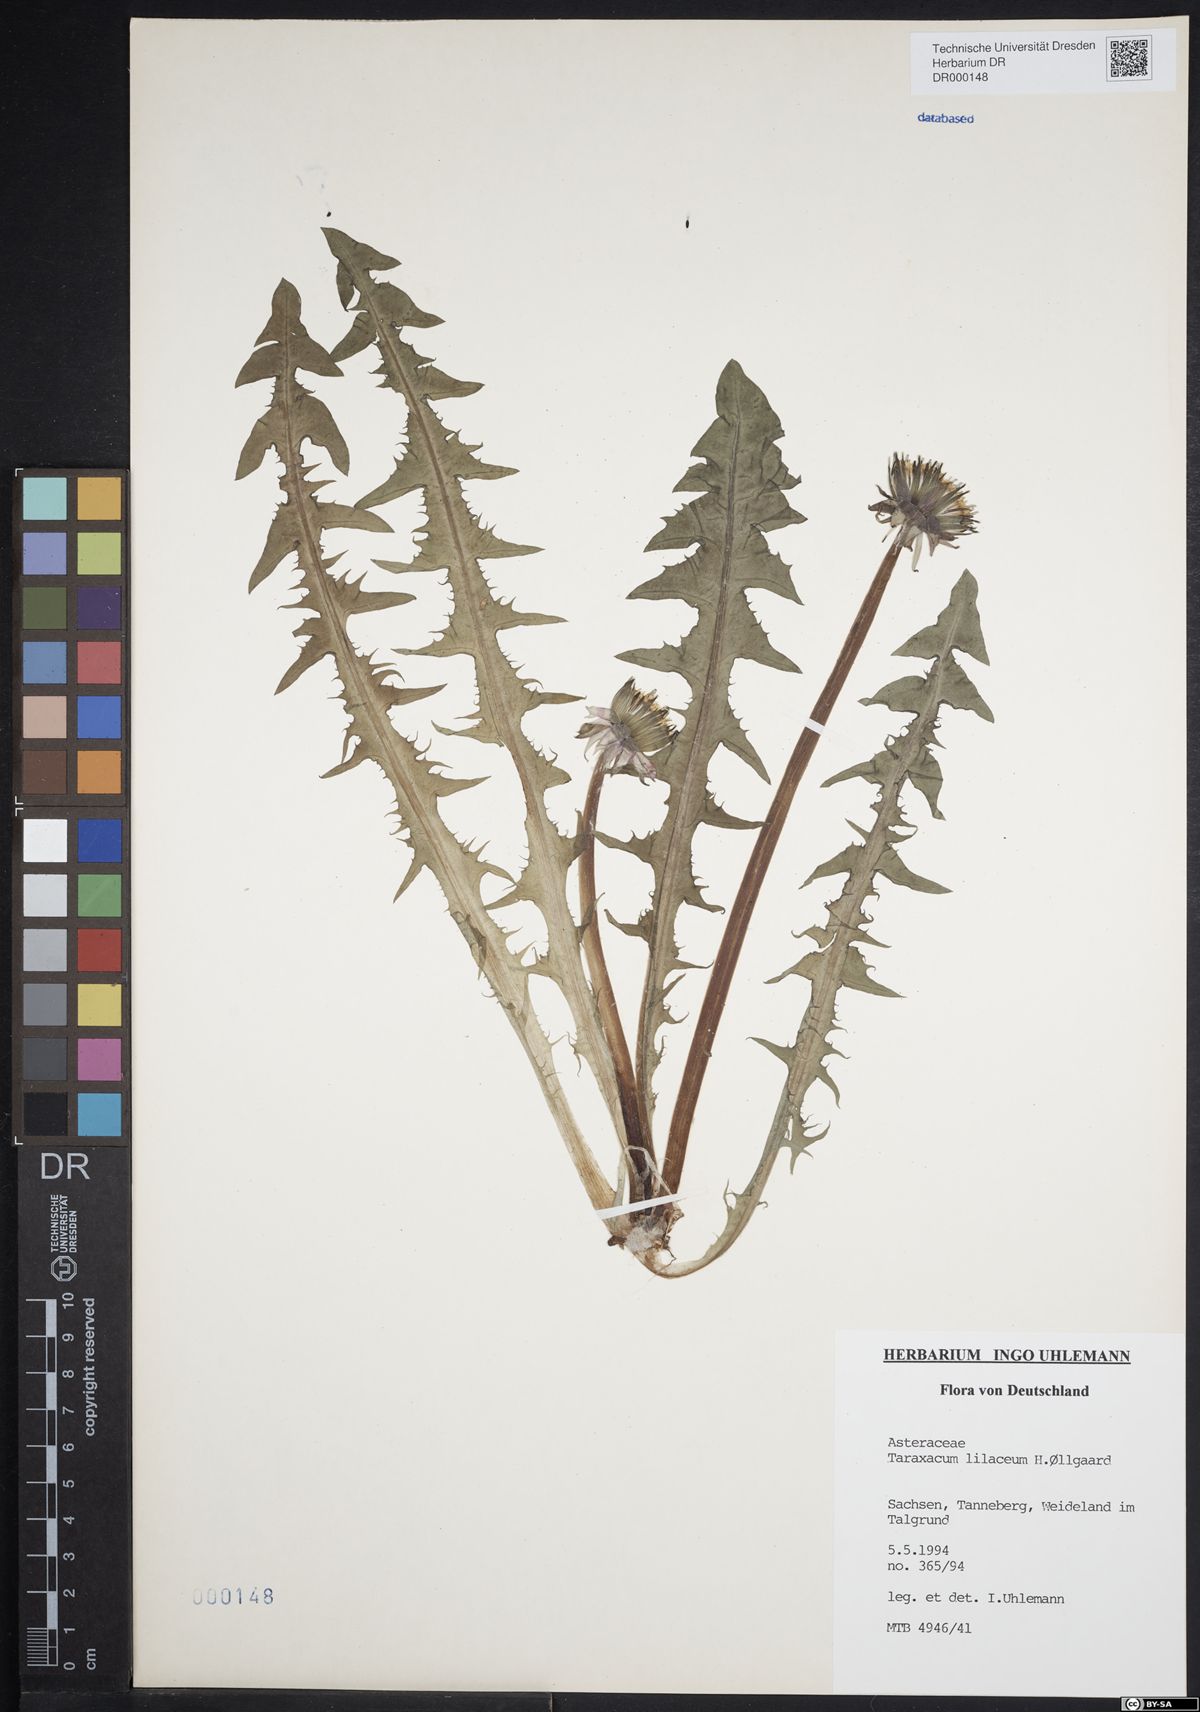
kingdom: Plantae
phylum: Tracheophyta
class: Magnoliopsida
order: Asterales
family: Asteraceae
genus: Taraxacum
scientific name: Taraxacum floccosum
